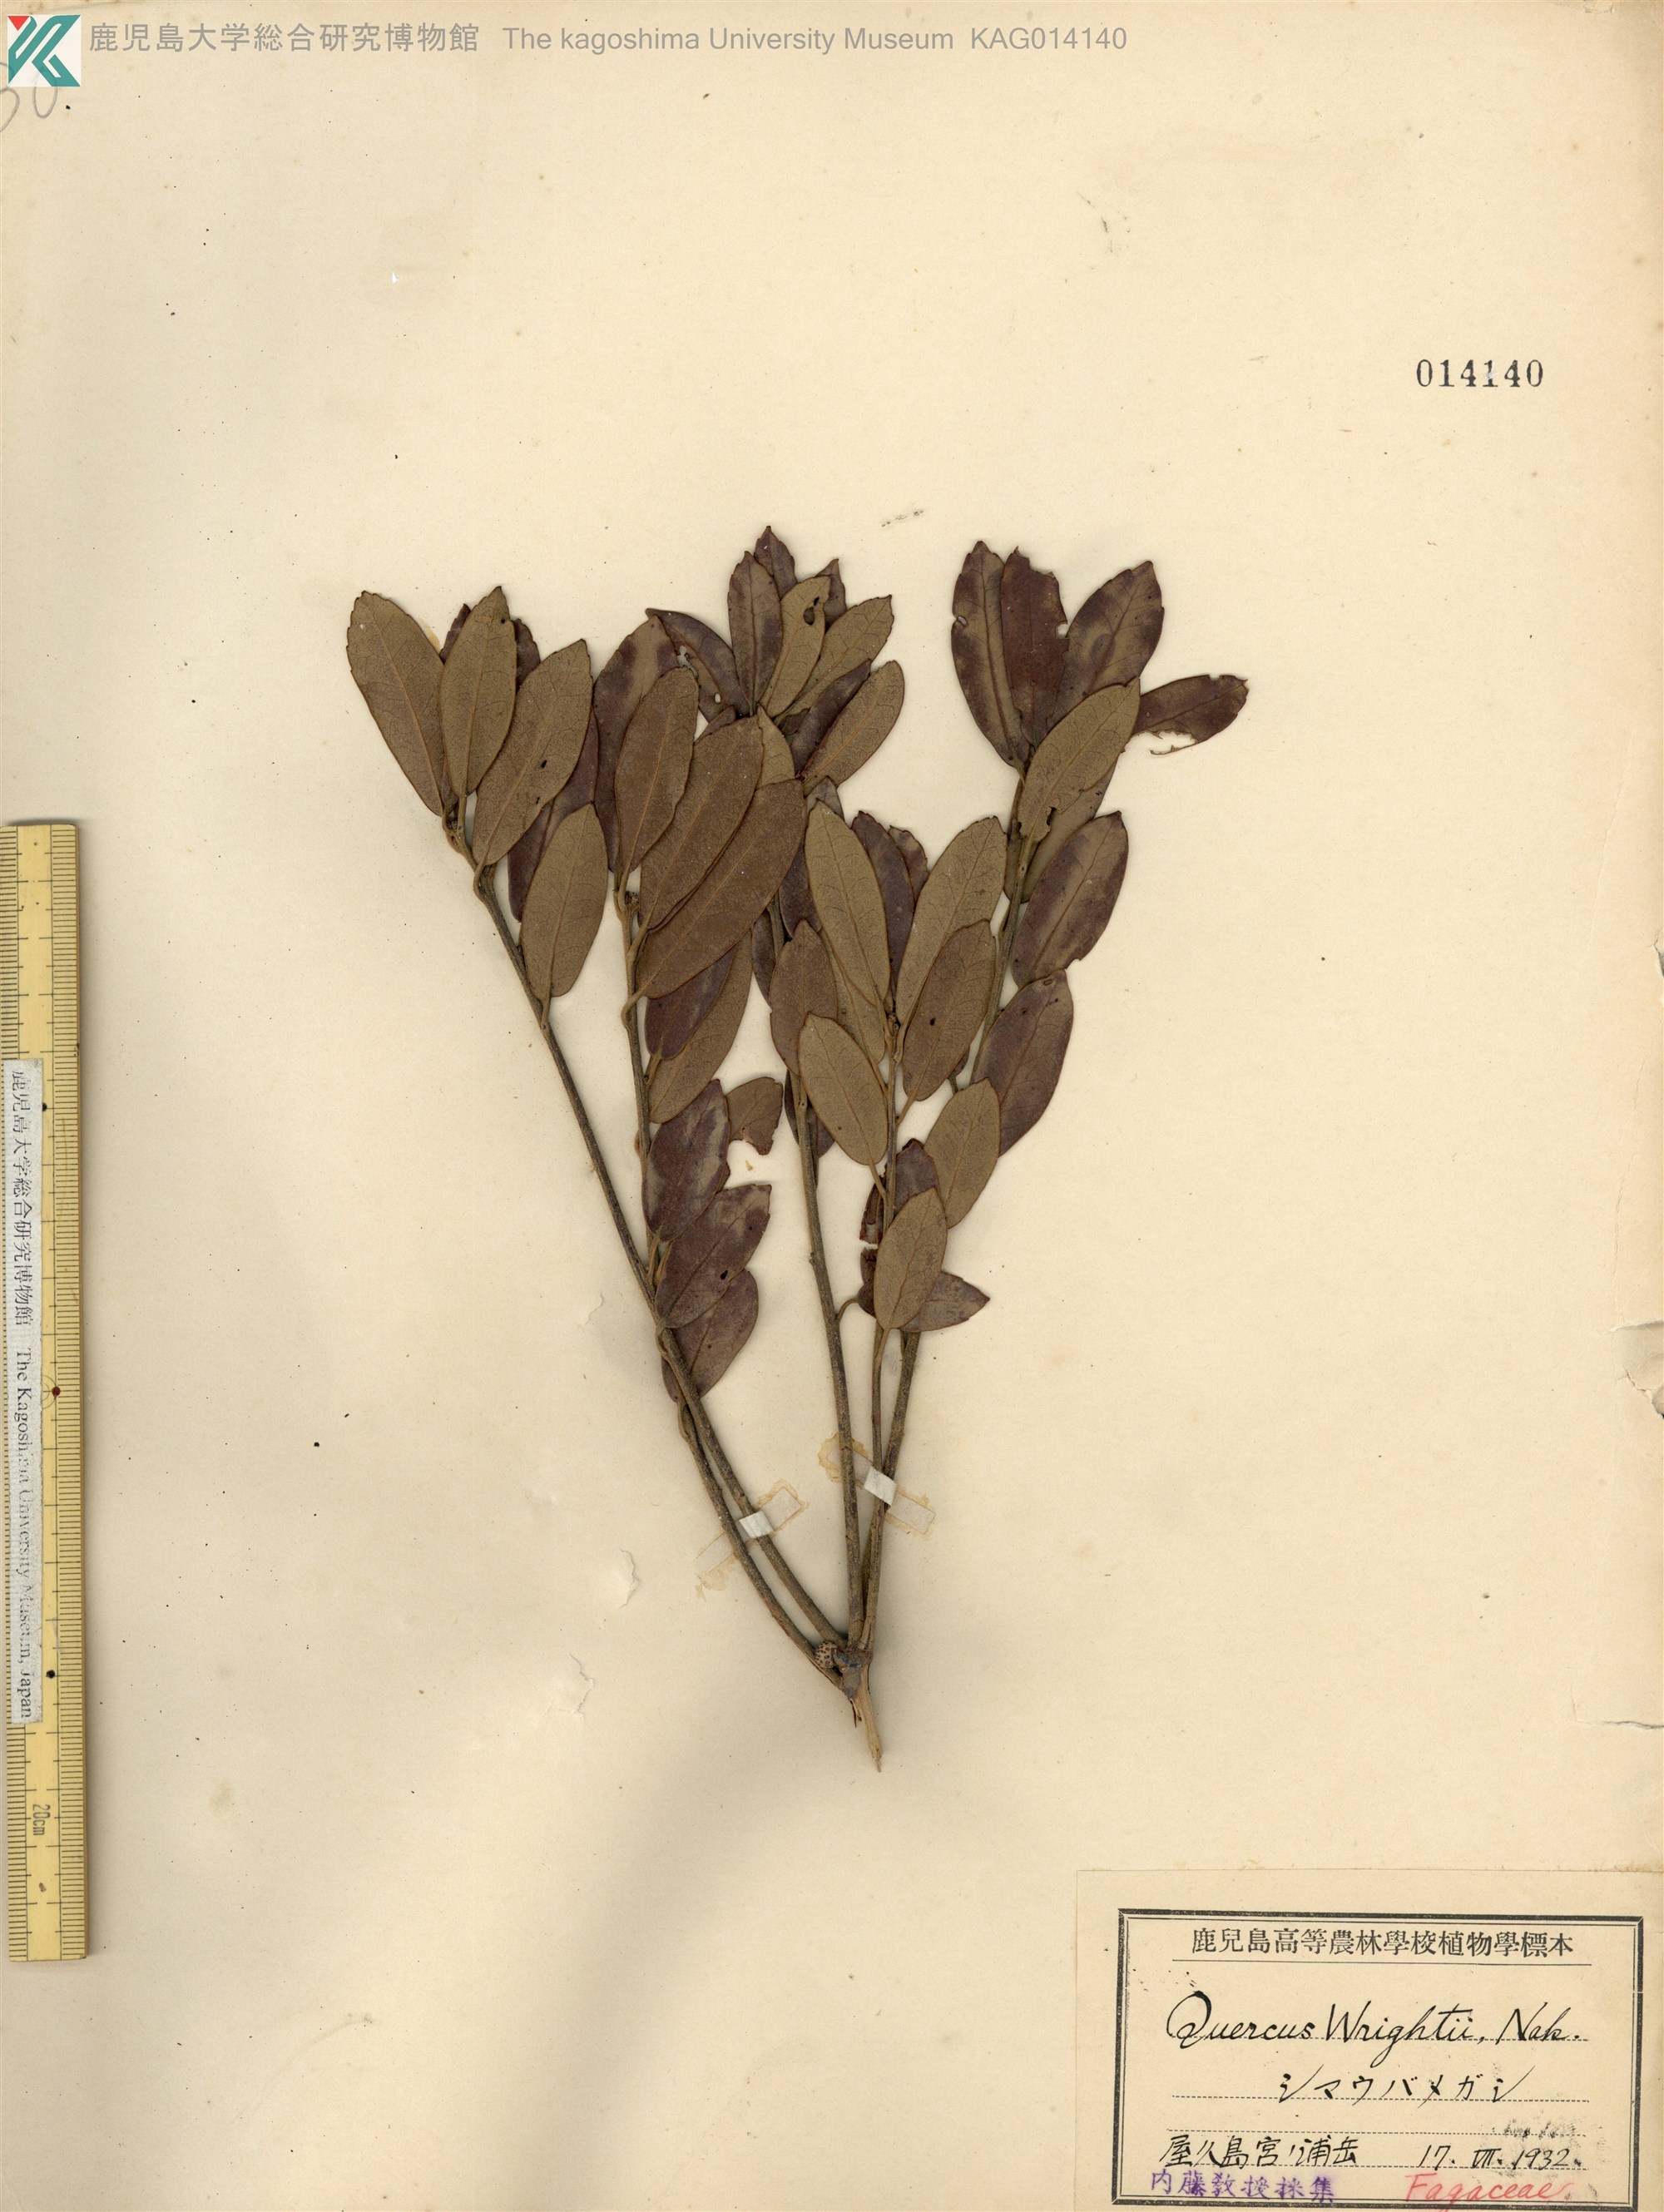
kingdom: Plantae
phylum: Tracheophyta
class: Magnoliopsida
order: Fagales
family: Fagaceae
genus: Quercus
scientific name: Quercus phillyreoides
